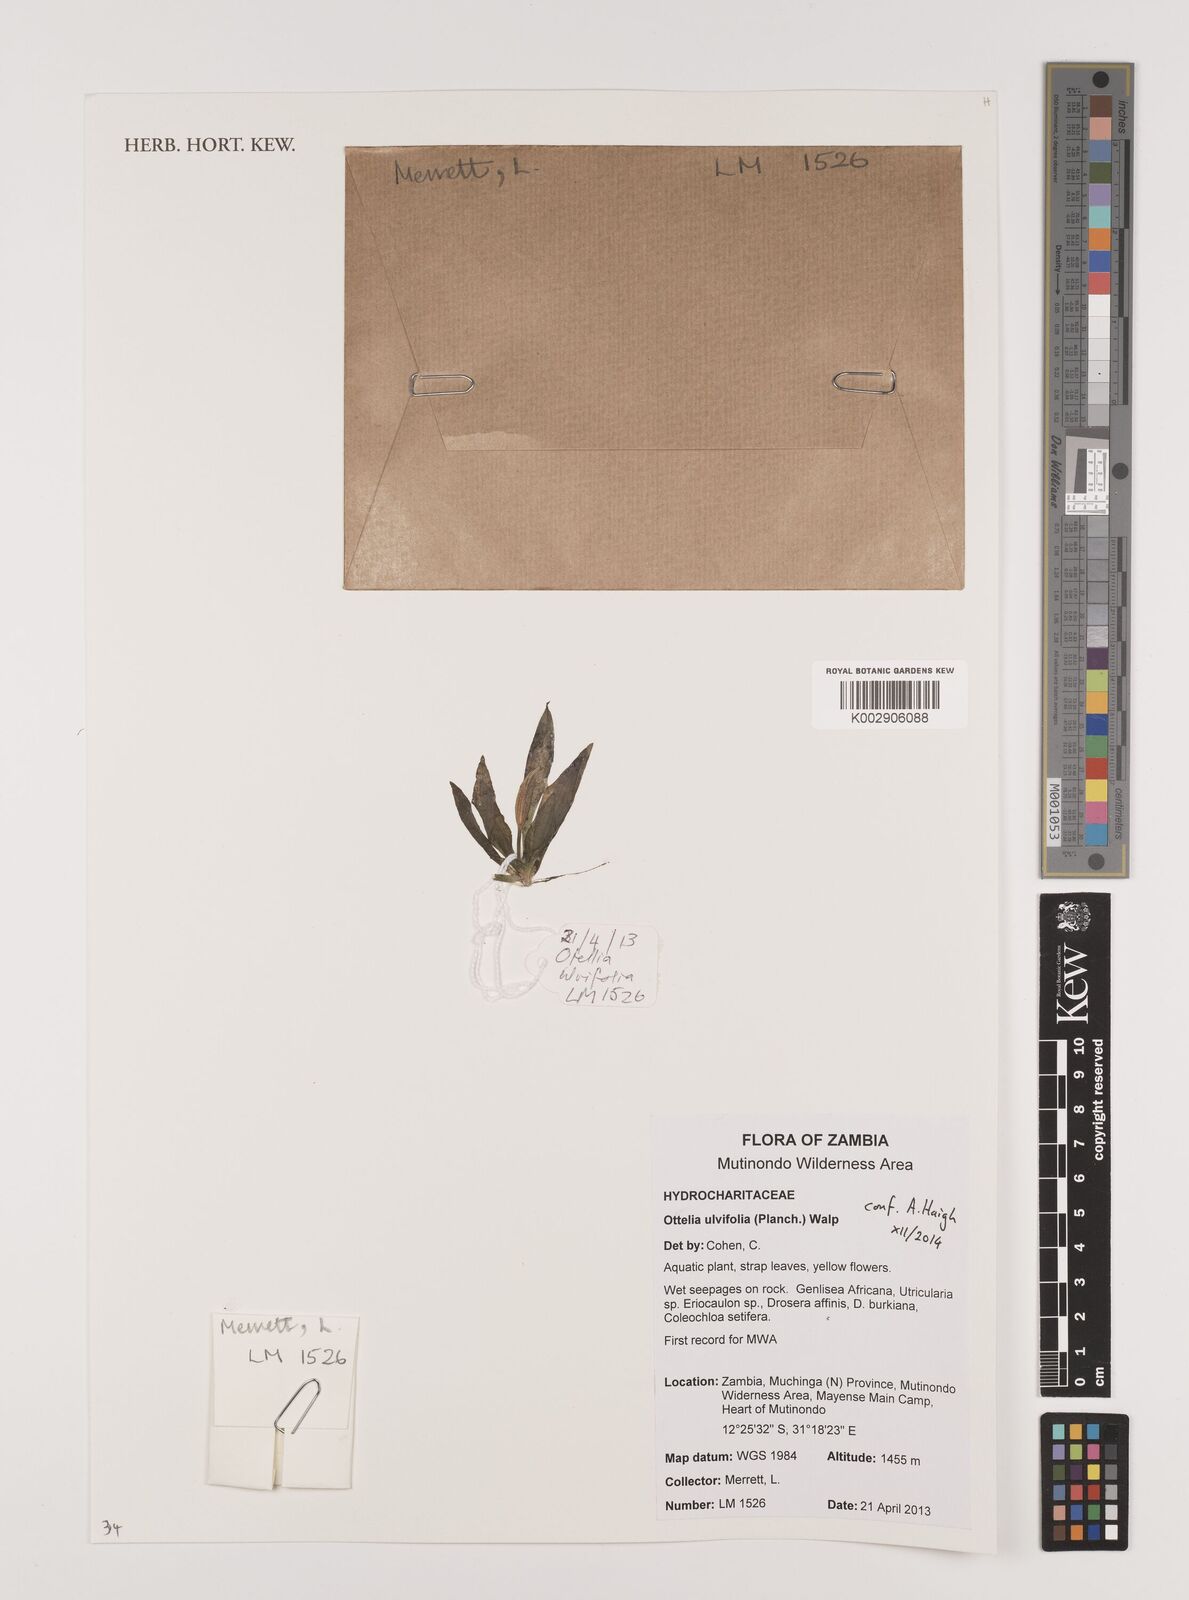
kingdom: Plantae
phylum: Tracheophyta
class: Liliopsida
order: Alismatales
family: Hydrocharitaceae
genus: Ottelia
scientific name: Ottelia ulvifolia
